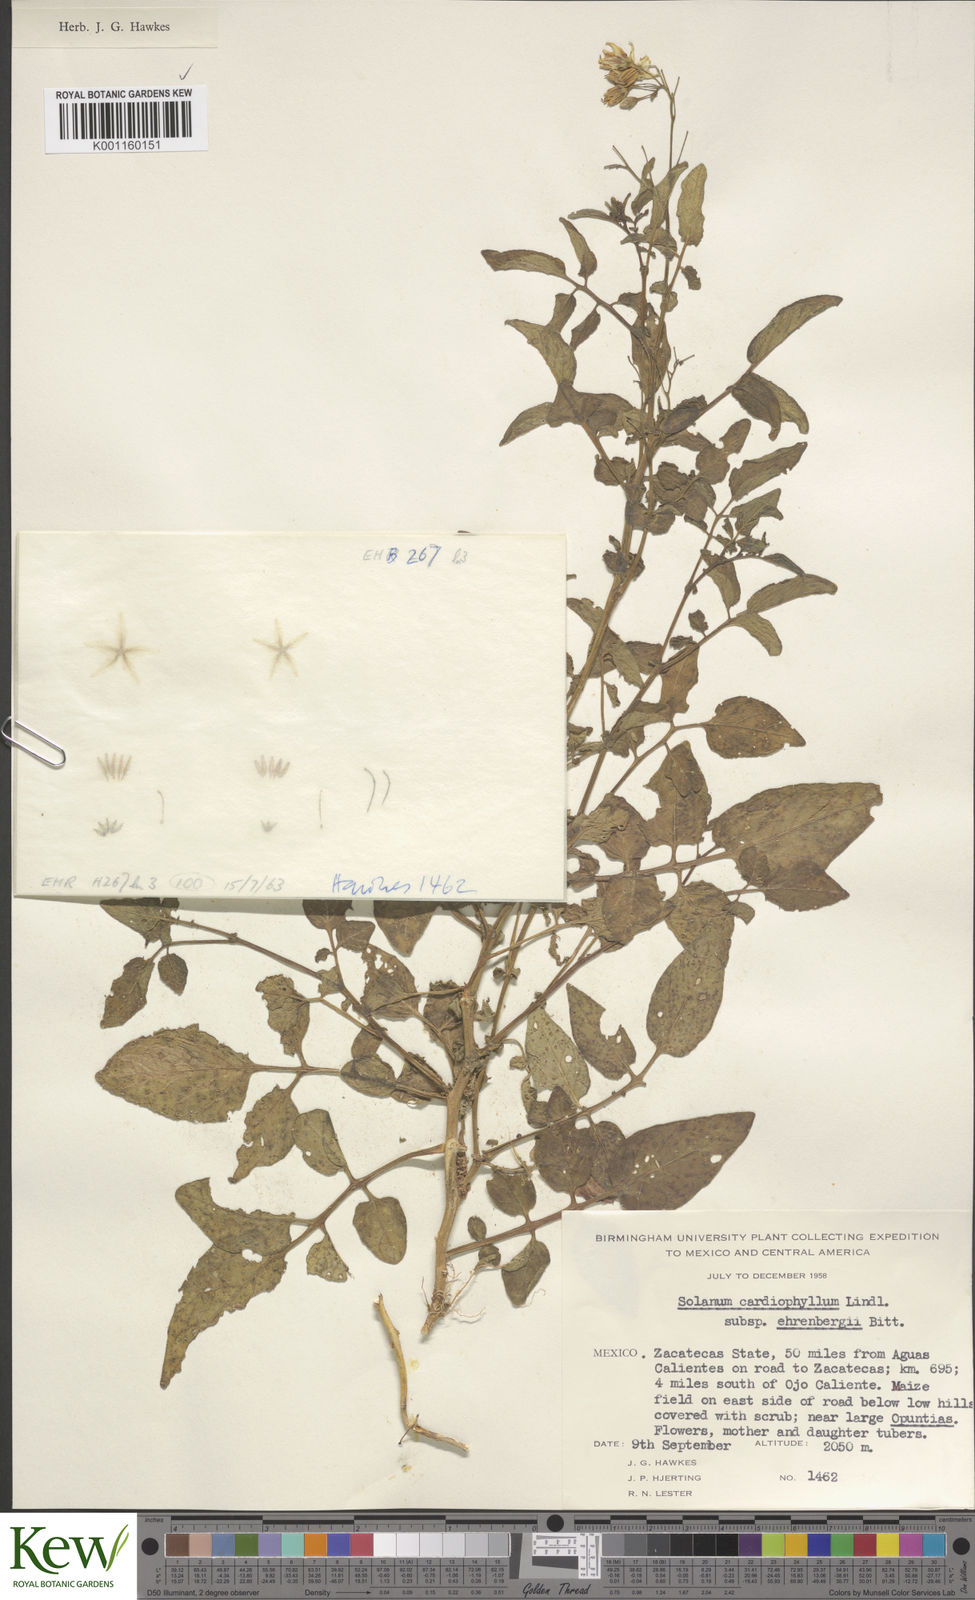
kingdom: Plantae
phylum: Tracheophyta
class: Magnoliopsida
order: Solanales
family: Solanaceae
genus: Solanum
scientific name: Solanum cardiophyllum
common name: Heartleaf horsenettle
